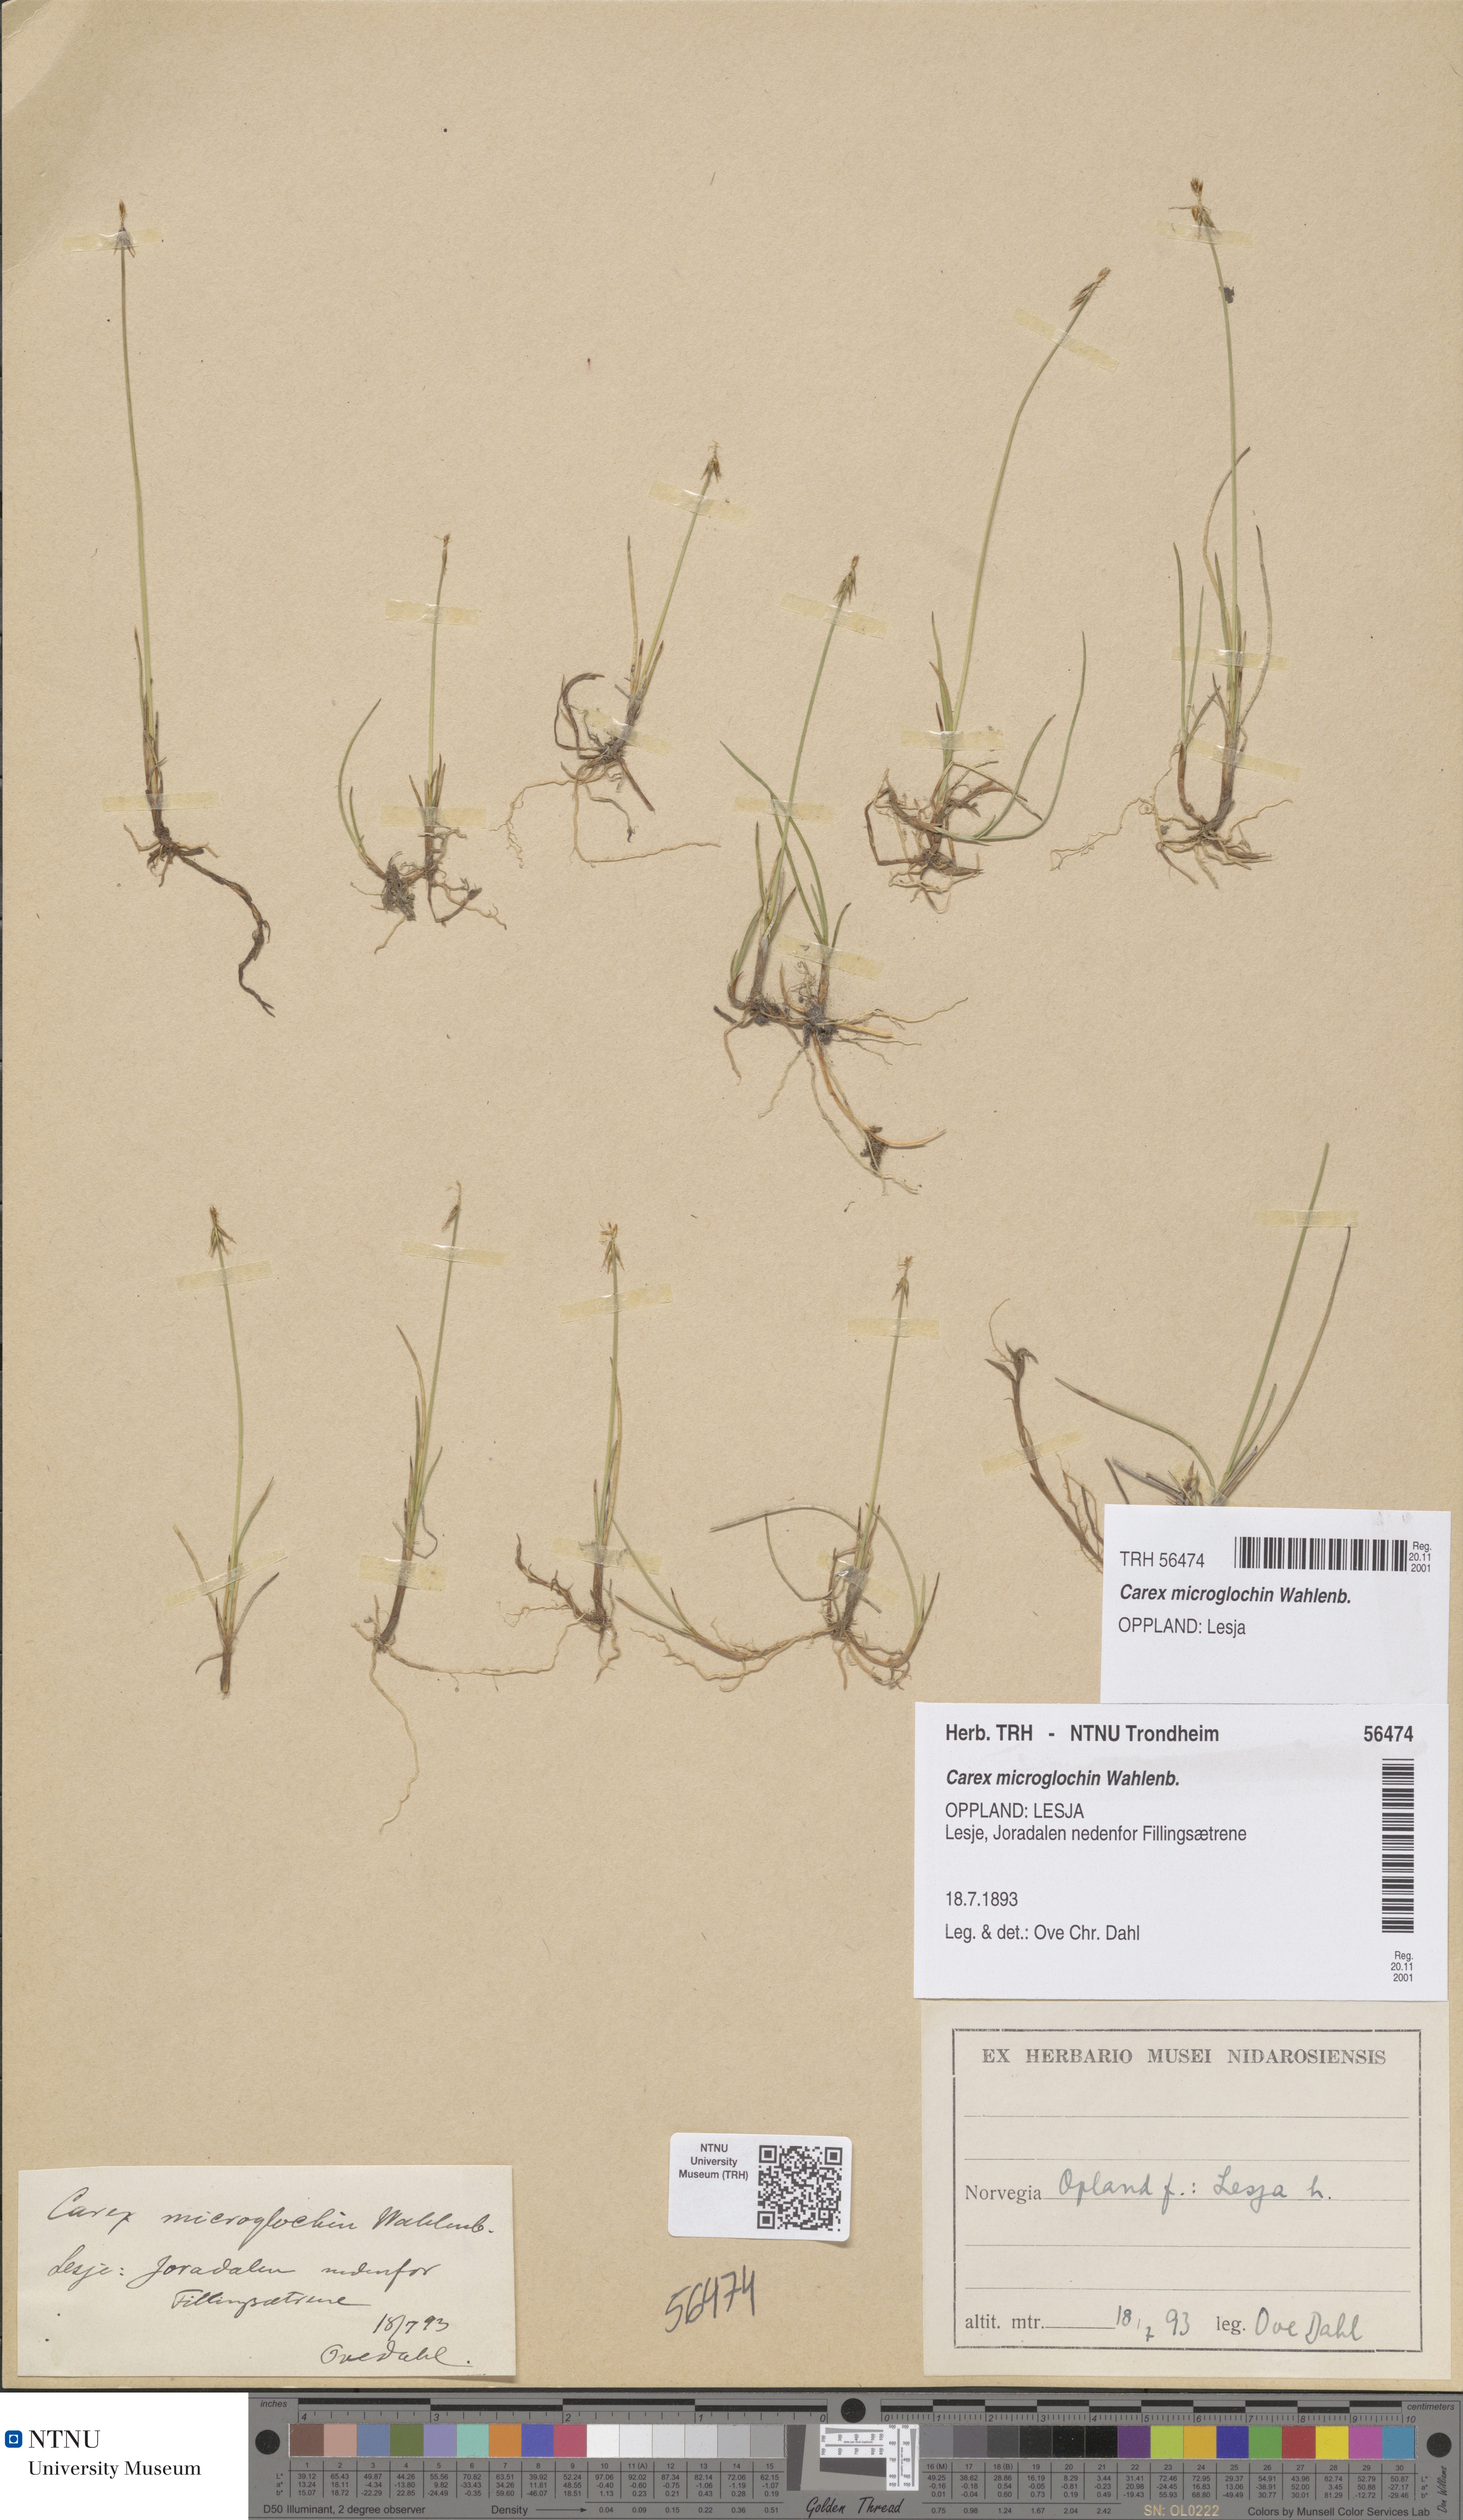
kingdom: Plantae
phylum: Tracheophyta
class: Liliopsida
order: Poales
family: Cyperaceae
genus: Carex
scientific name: Carex microglochin
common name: Bristle sedge
